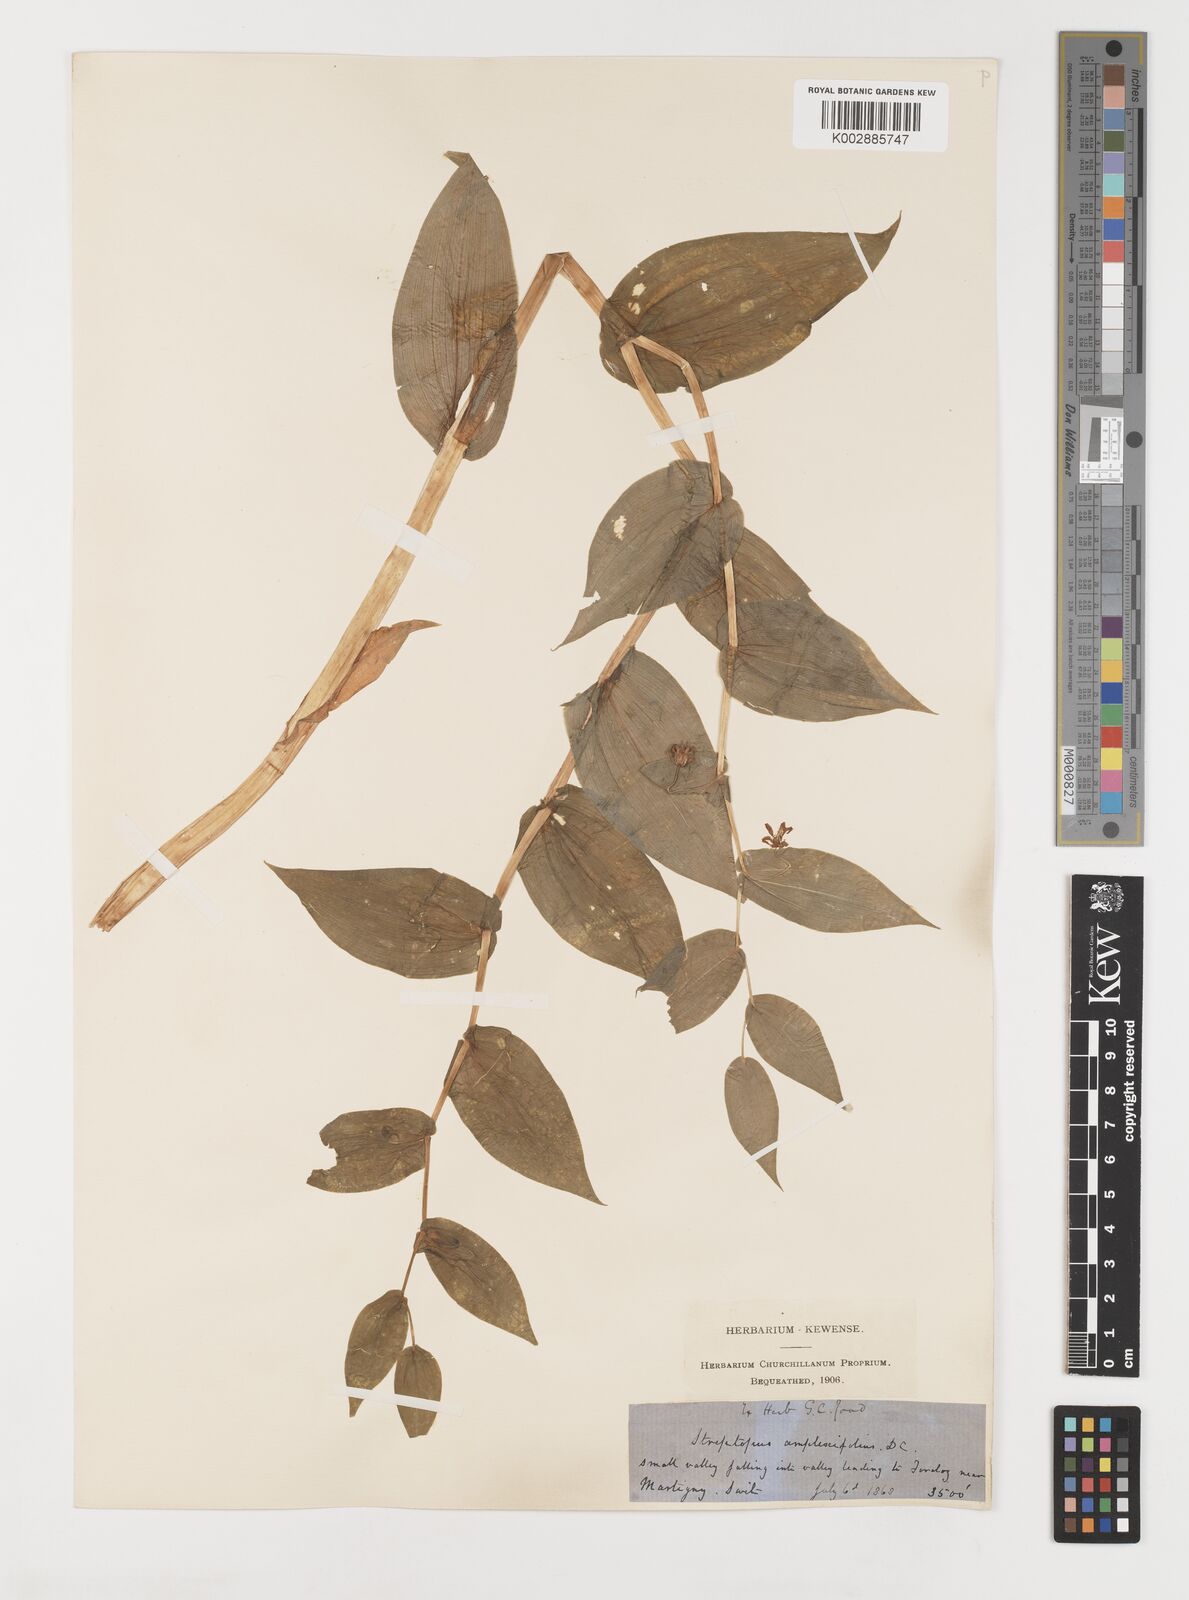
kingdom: Plantae
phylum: Tracheophyta
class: Liliopsida
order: Liliales
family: Liliaceae
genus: Streptopus
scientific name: Streptopus amplexifolius
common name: Clasp twisted stalk
